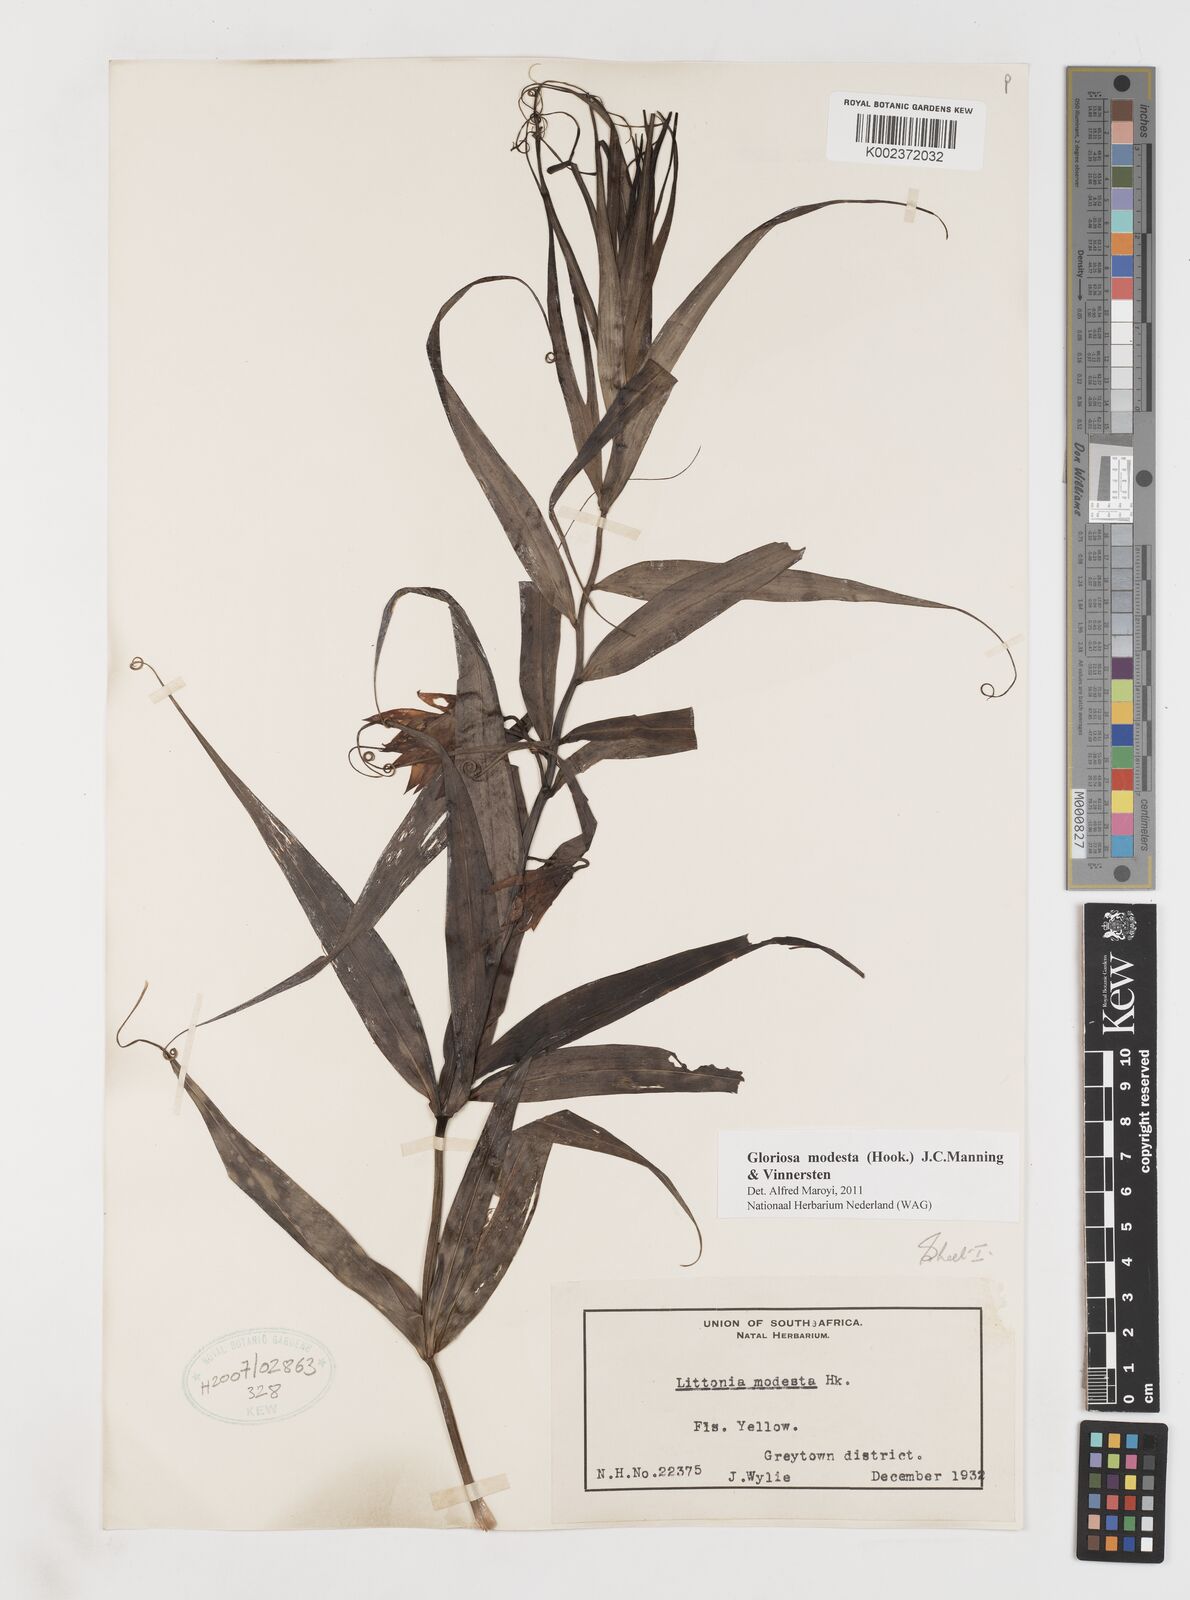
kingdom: Plantae
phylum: Tracheophyta
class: Liliopsida
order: Liliales
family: Colchicaceae
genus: Gloriosa
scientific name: Gloriosa modesta
